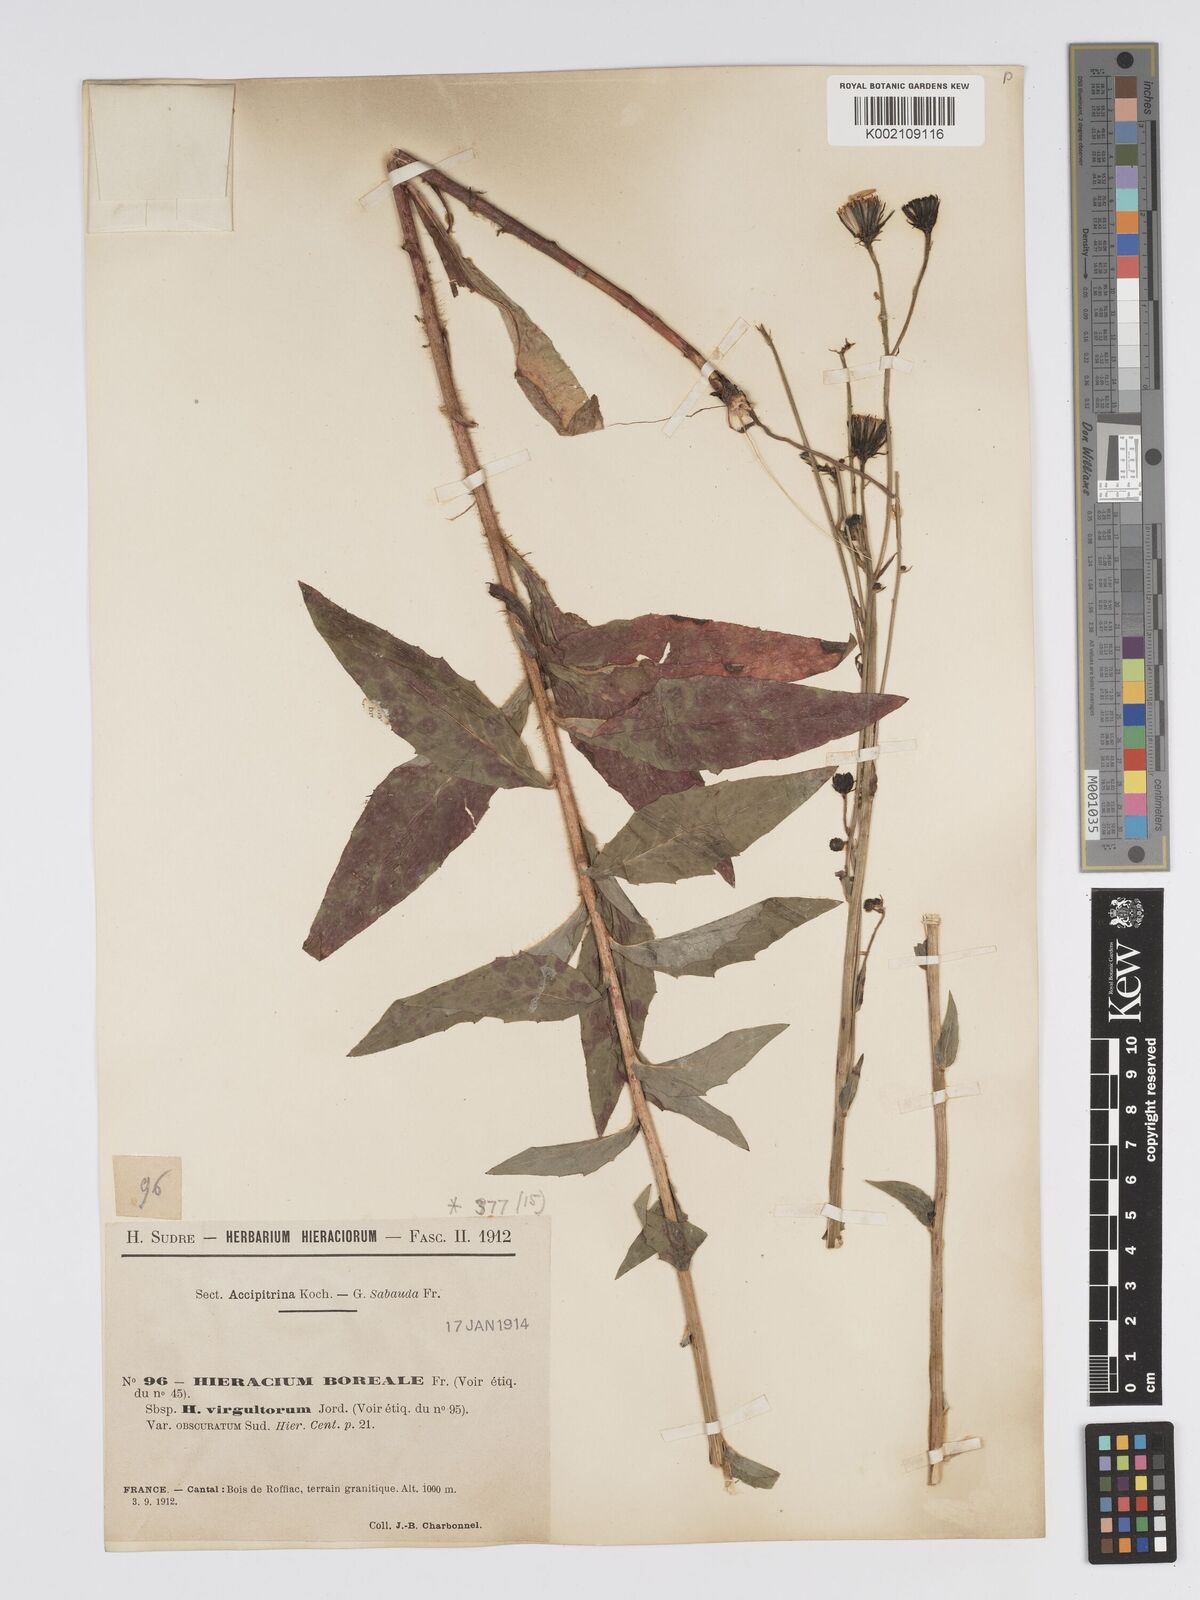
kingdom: Plantae
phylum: Tracheophyta
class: Magnoliopsida
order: Asterales
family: Asteraceae
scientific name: Asteraceae
